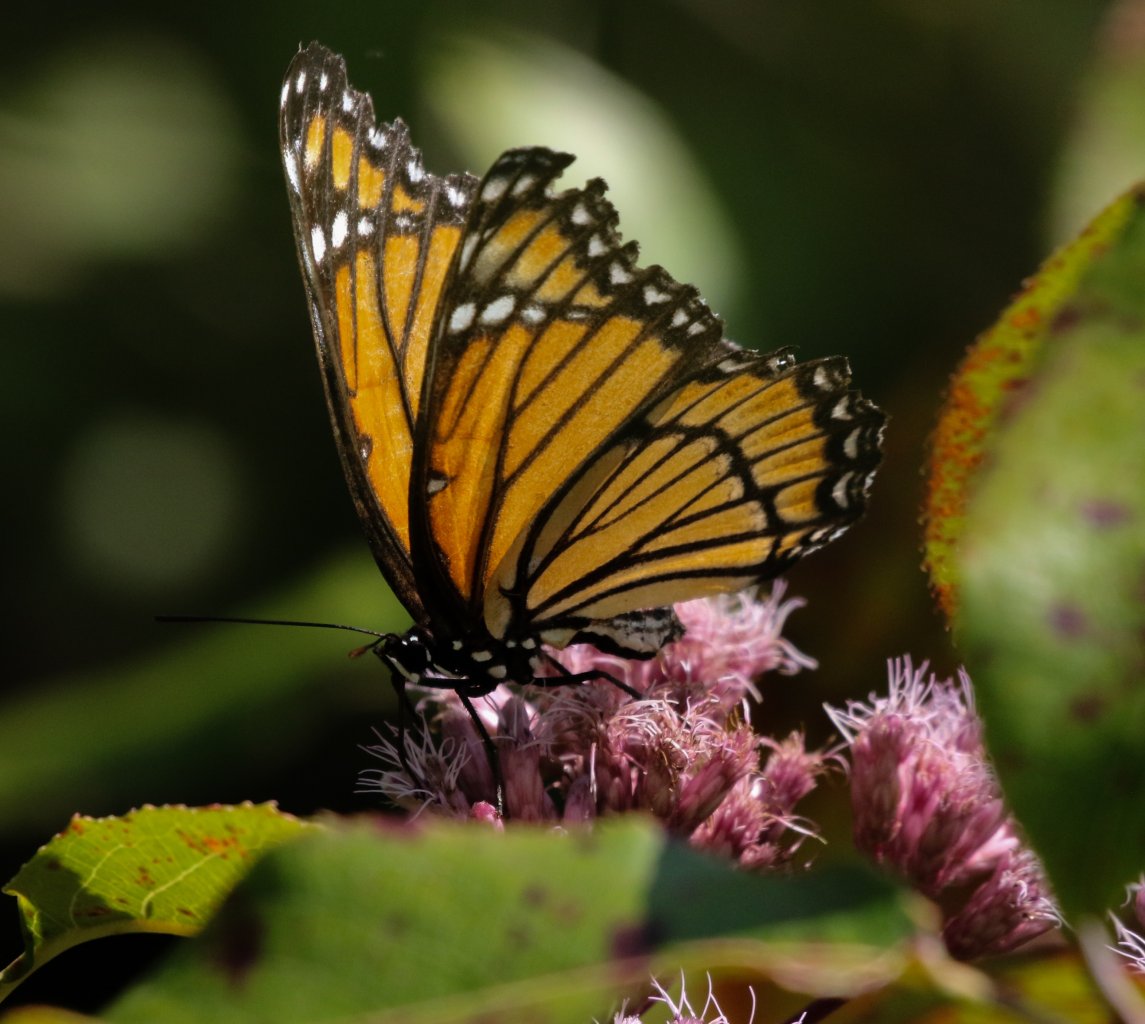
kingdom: Animalia
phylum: Arthropoda
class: Insecta
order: Lepidoptera
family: Nymphalidae
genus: Limenitis
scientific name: Limenitis archippus
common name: Viceroy
